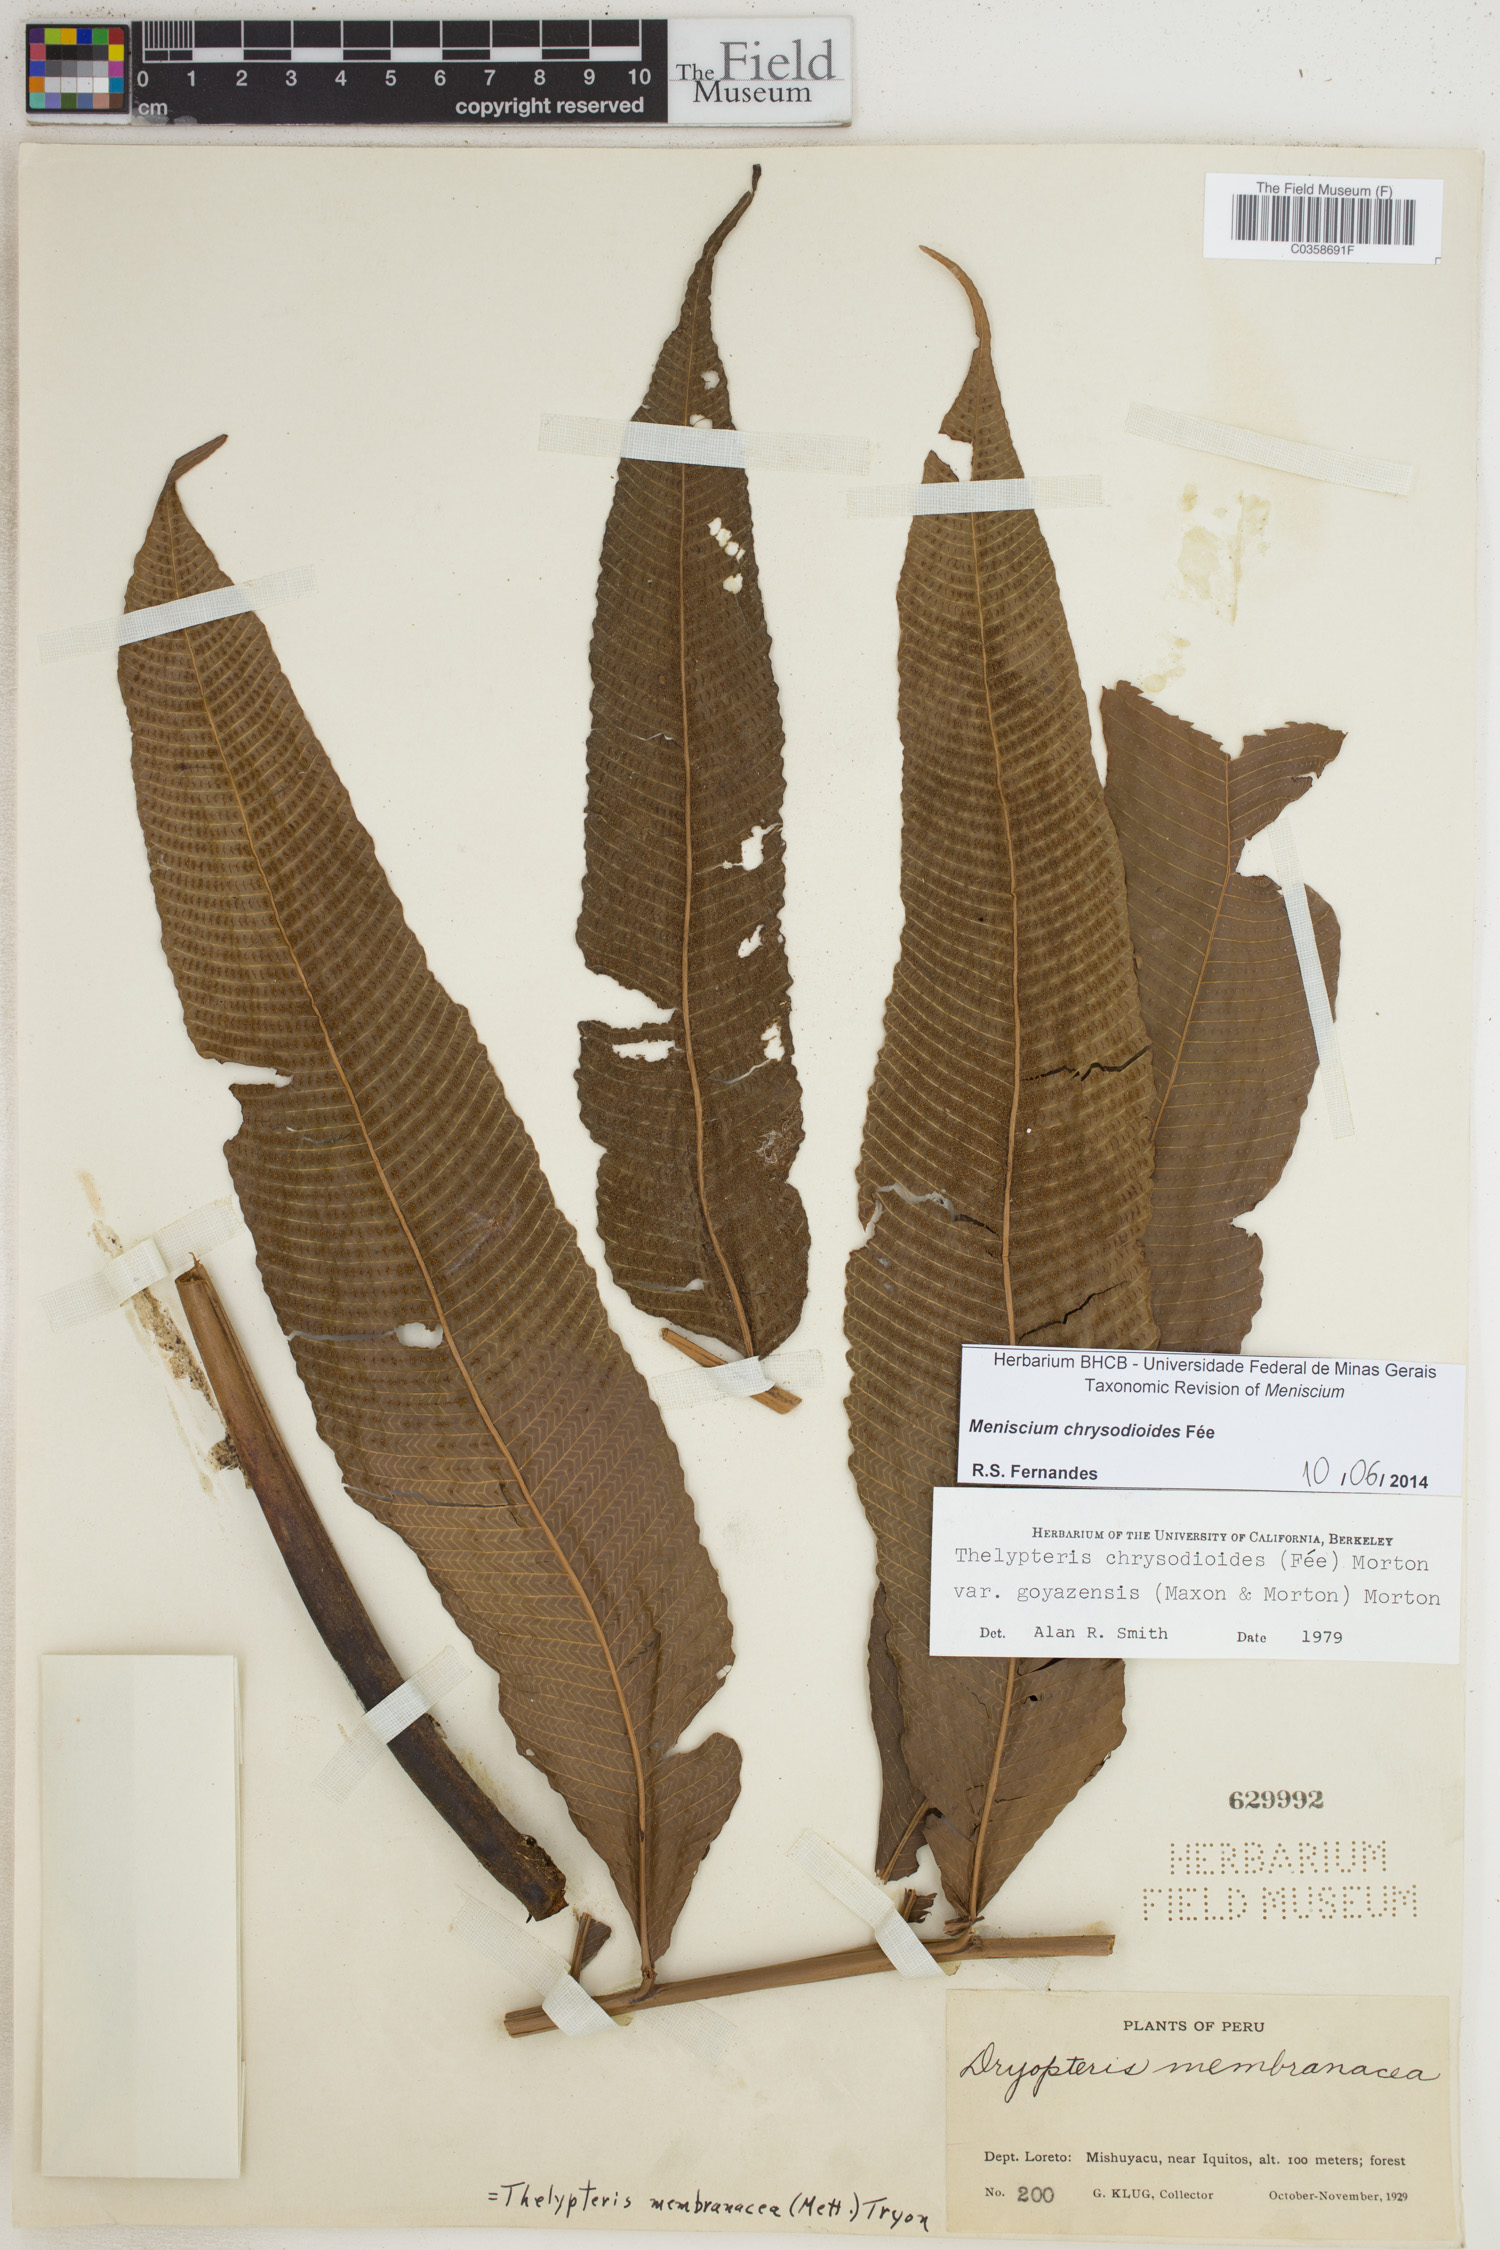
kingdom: Plantae
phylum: Tracheophyta
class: Polypodiopsida
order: Polypodiales
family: Thelypteridaceae
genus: Meniscium
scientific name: Meniscium chrysodioides
